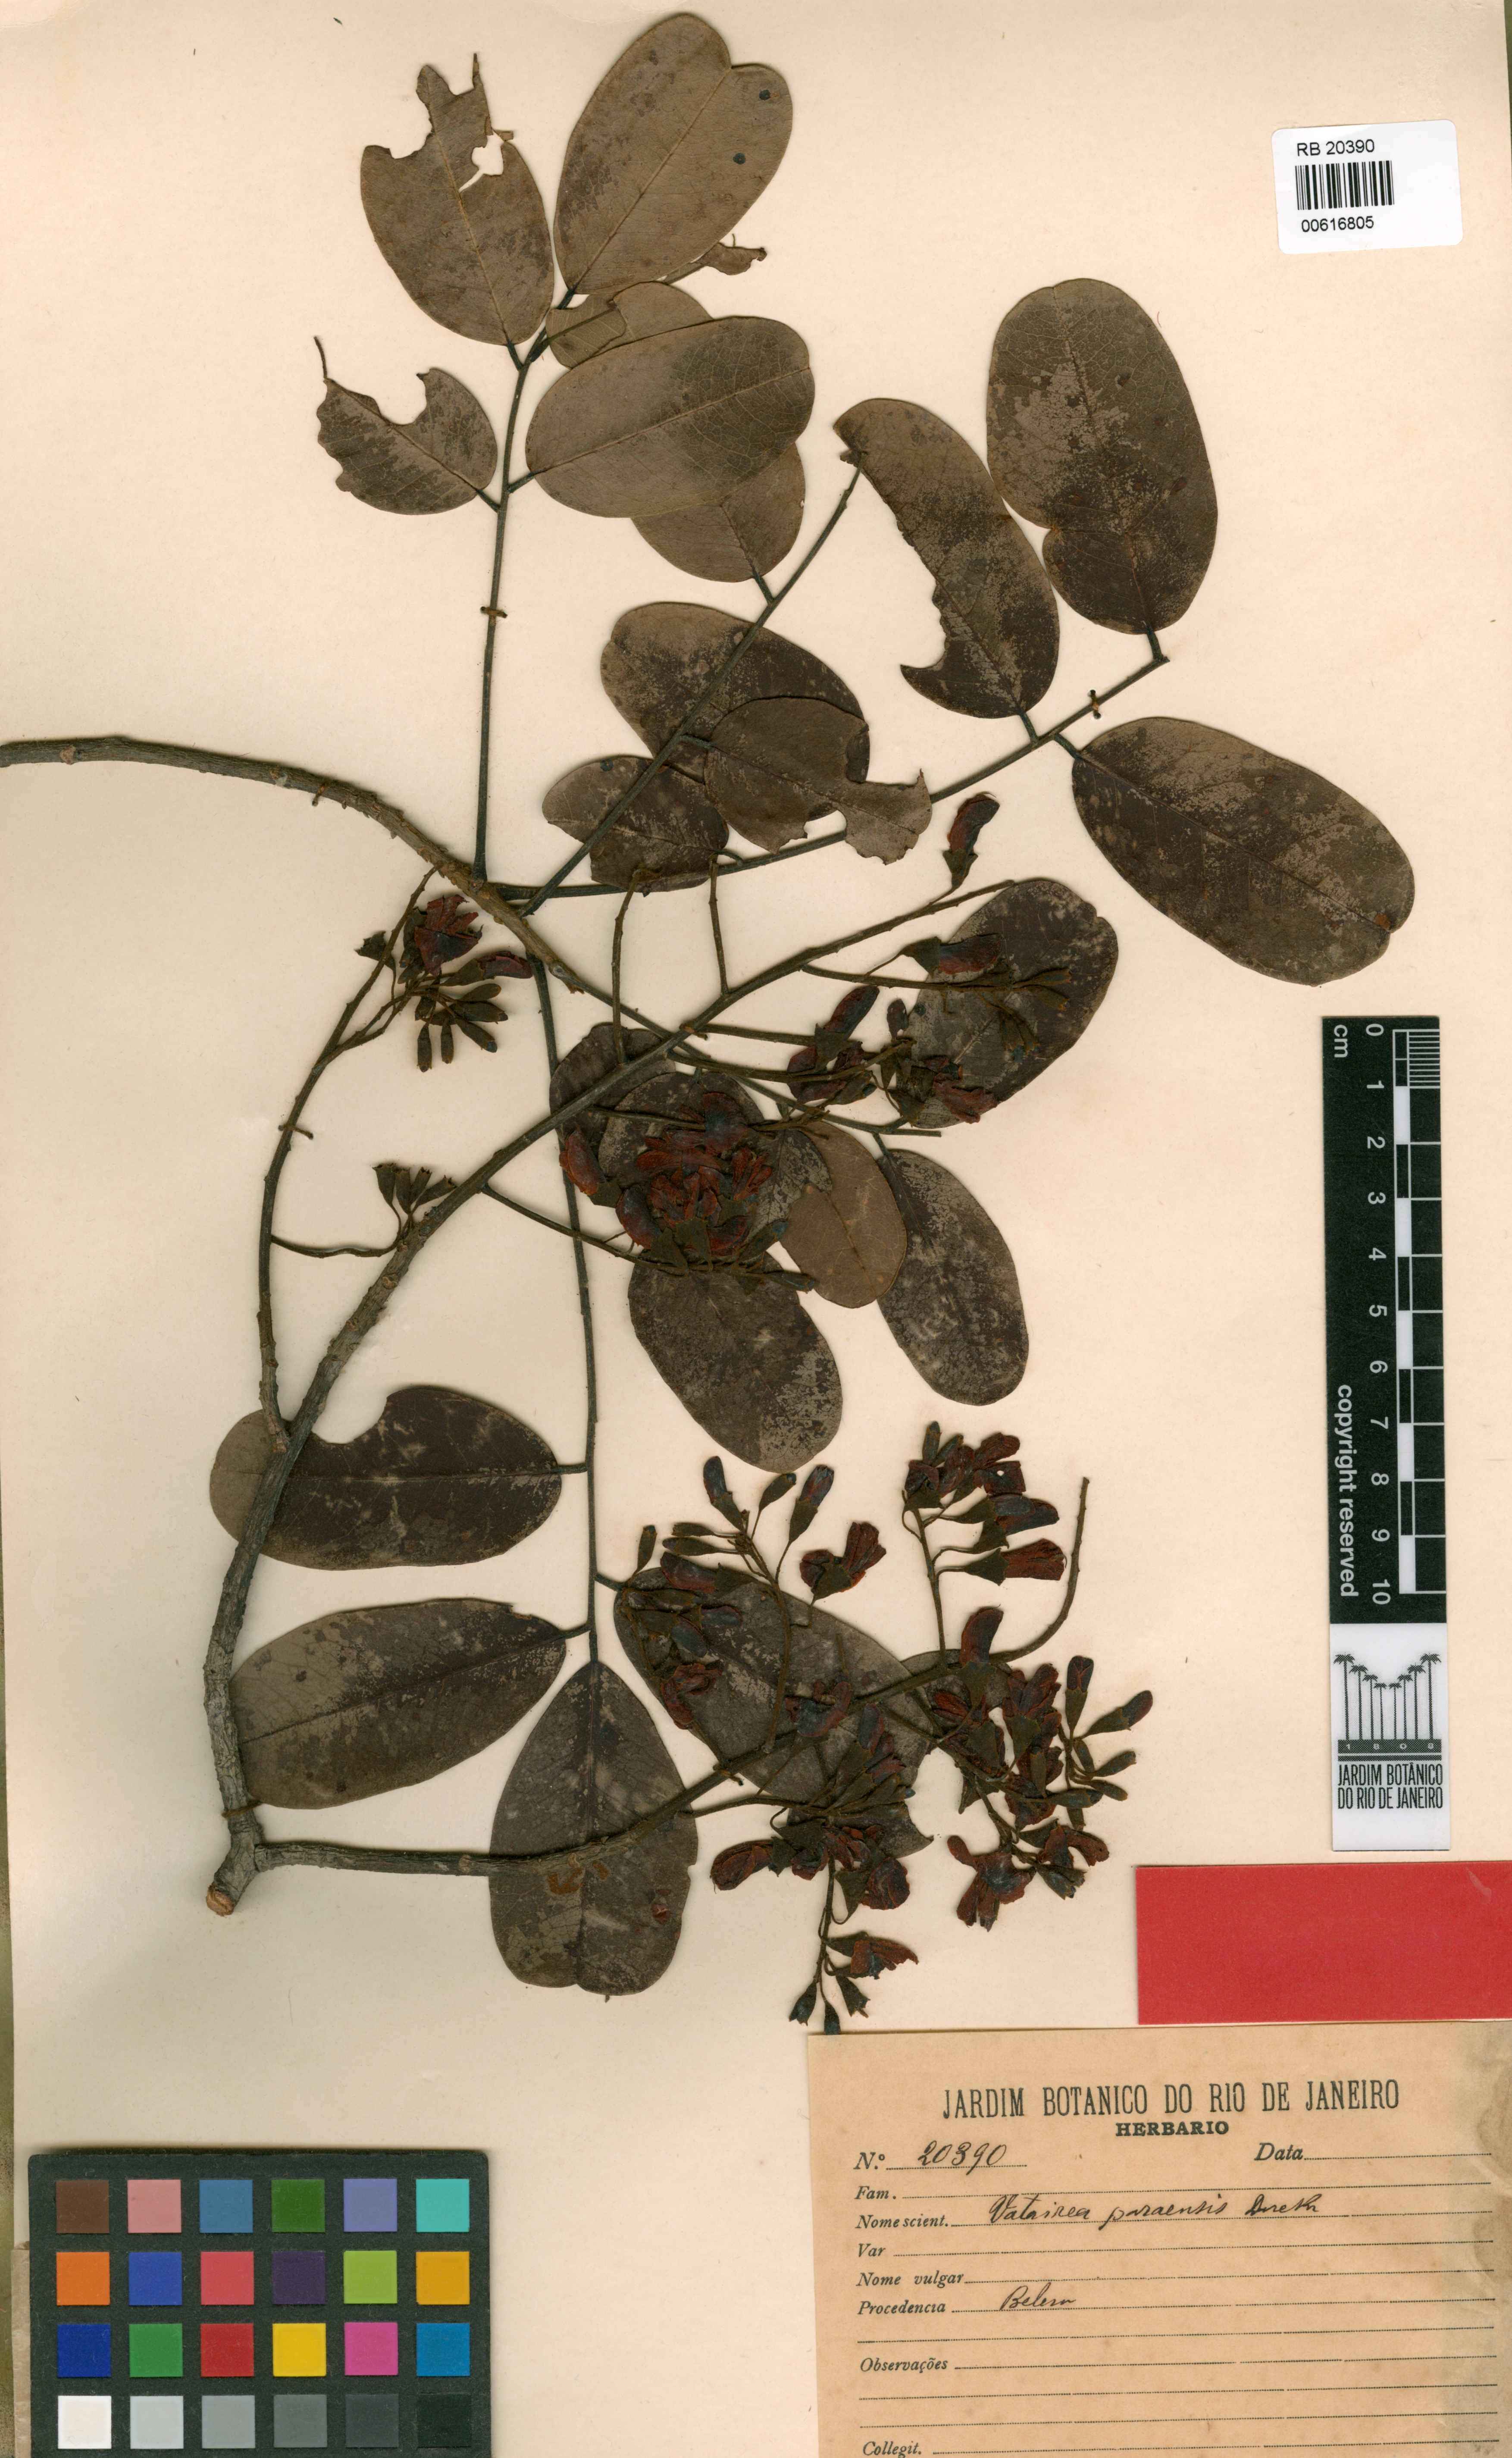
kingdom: Plantae
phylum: Tracheophyta
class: Magnoliopsida
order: Fabales
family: Fabaceae
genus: Vatairea
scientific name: Vatairea paraensis
